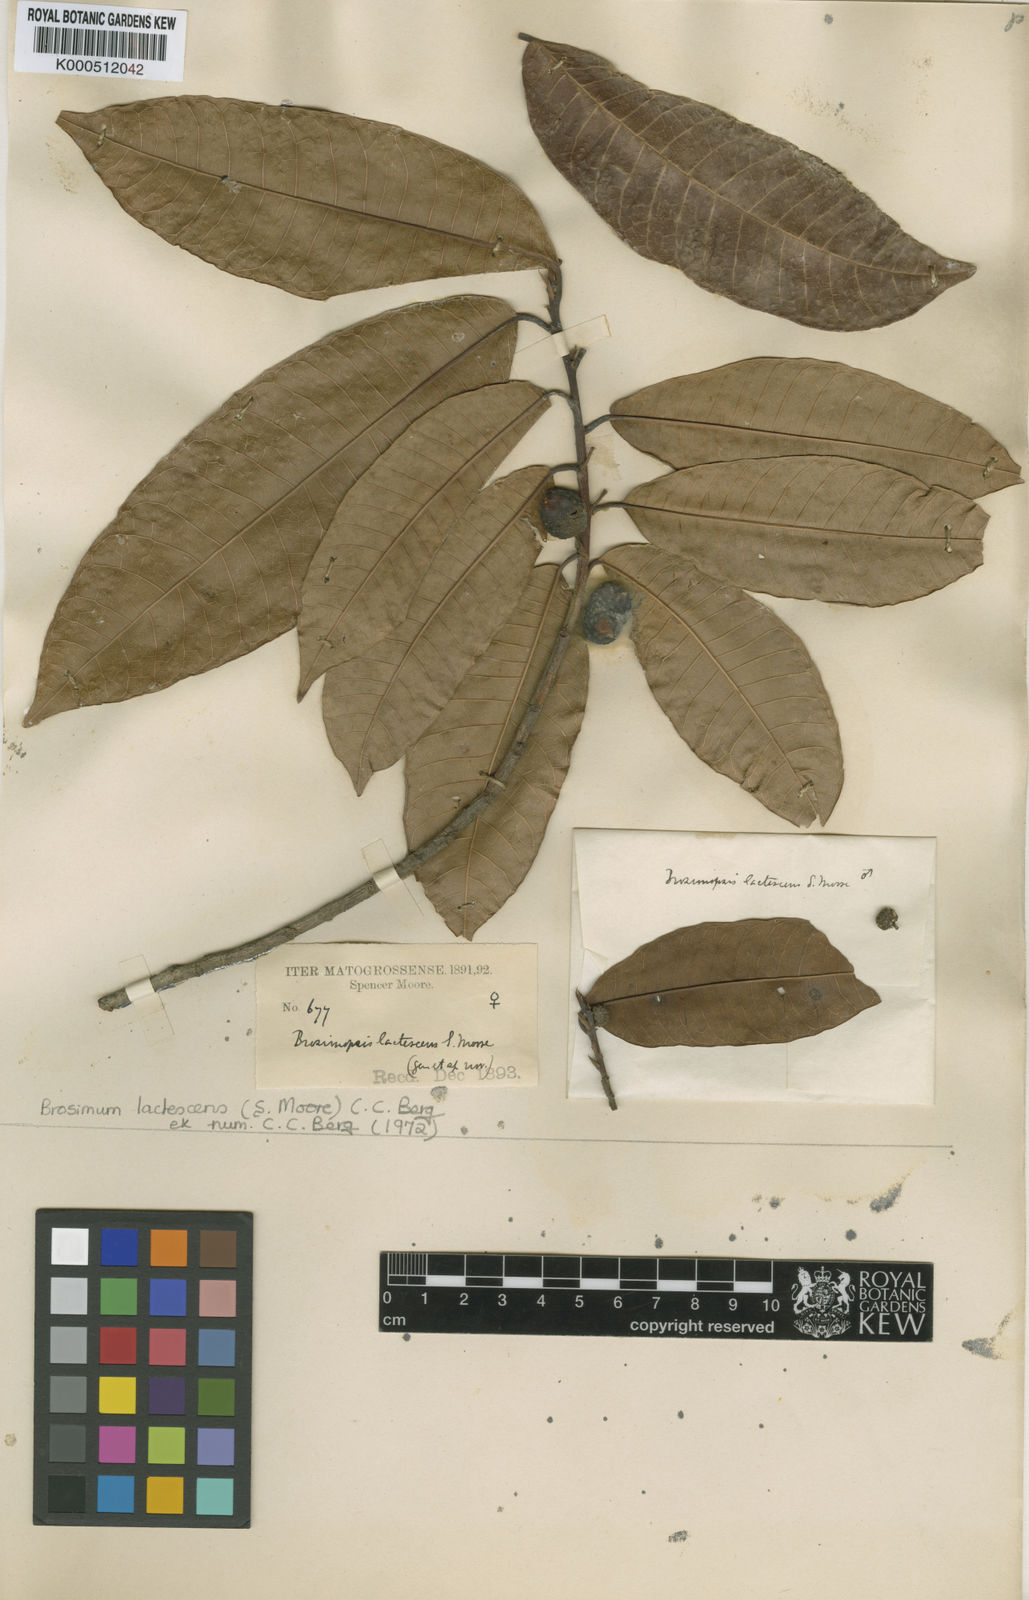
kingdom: Plantae
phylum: Tracheophyta
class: Magnoliopsida
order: Rosales
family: Moraceae
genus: Brosimum
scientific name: Brosimum lactescens
